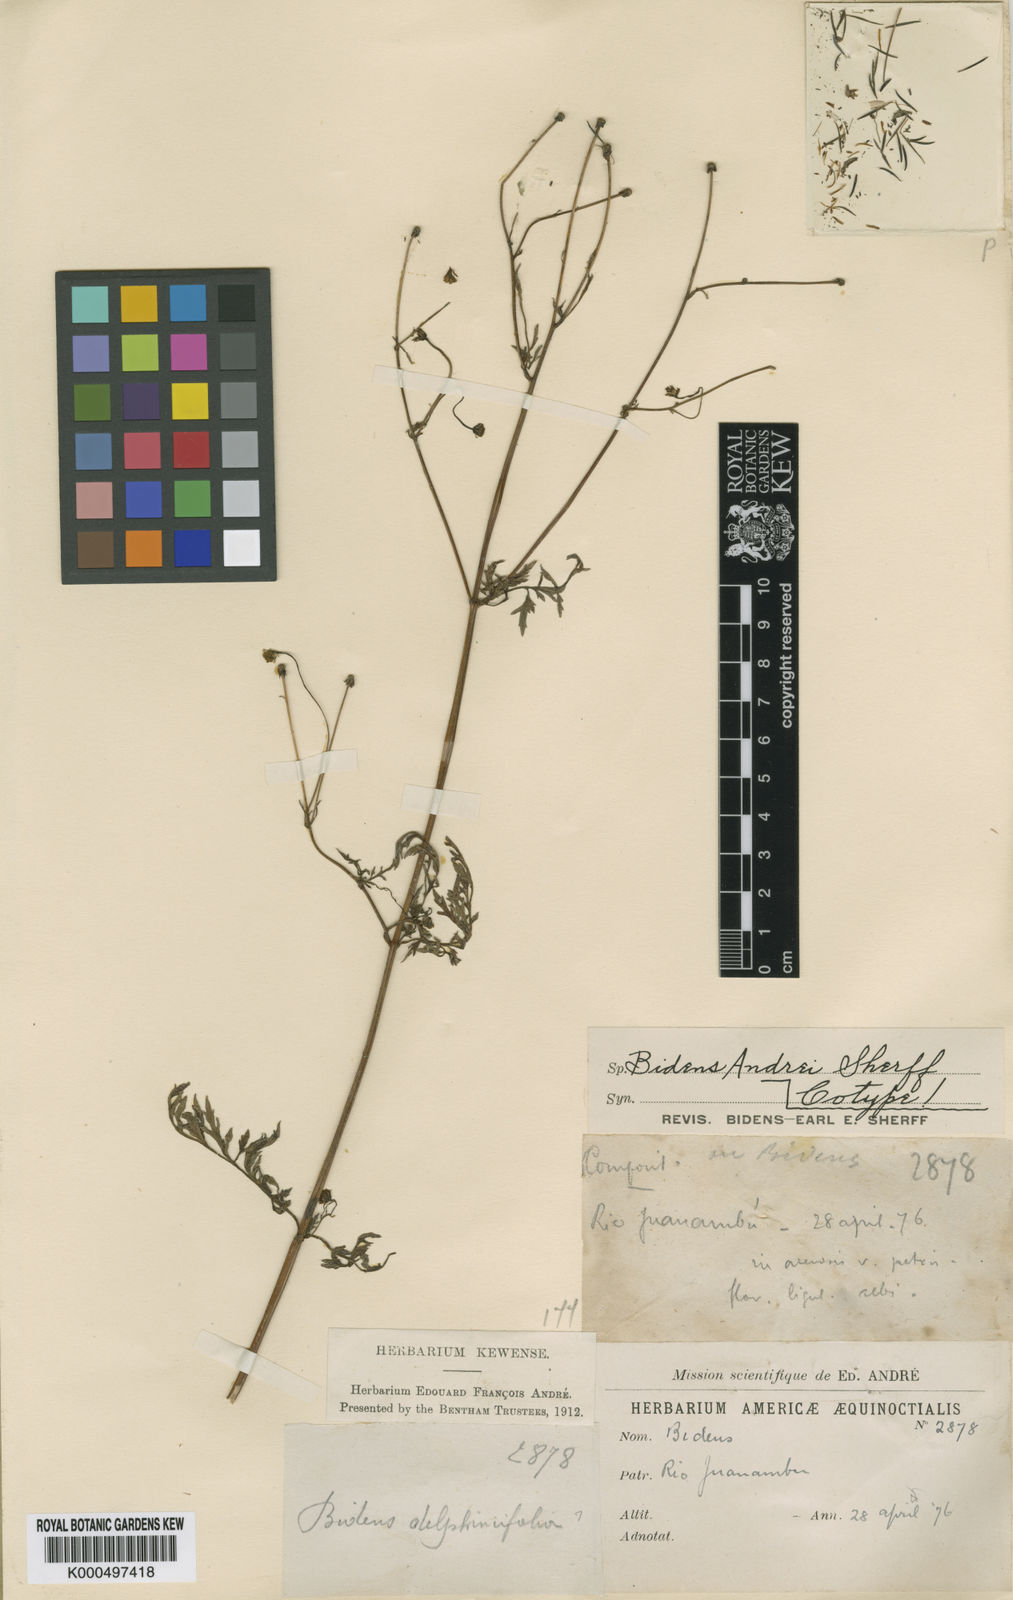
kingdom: Plantae
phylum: Tracheophyta
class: Magnoliopsida
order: Asterales
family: Asteraceae
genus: Bidens
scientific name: Bidens andrei
